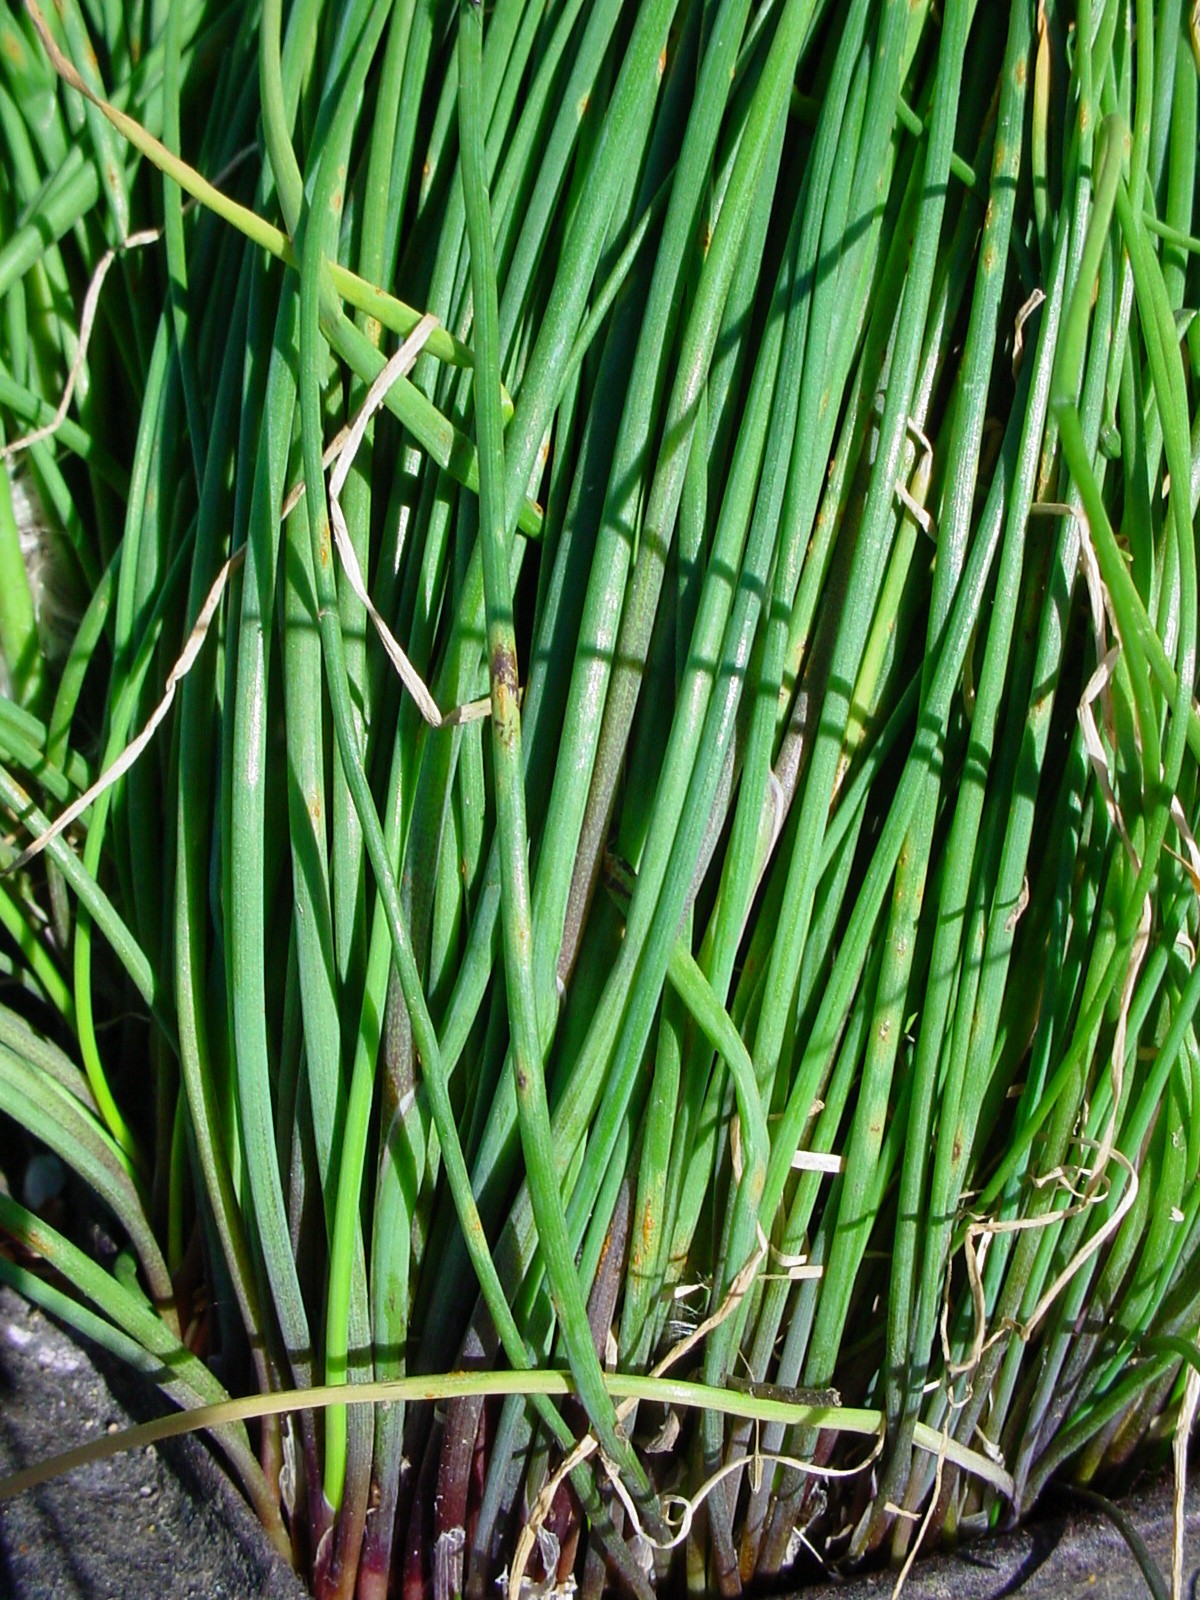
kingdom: Plantae
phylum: Tracheophyta
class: Liliopsida
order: Asparagales
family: Amaryllidaceae
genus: Allium
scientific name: Allium schoenoprasum
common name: Chives
